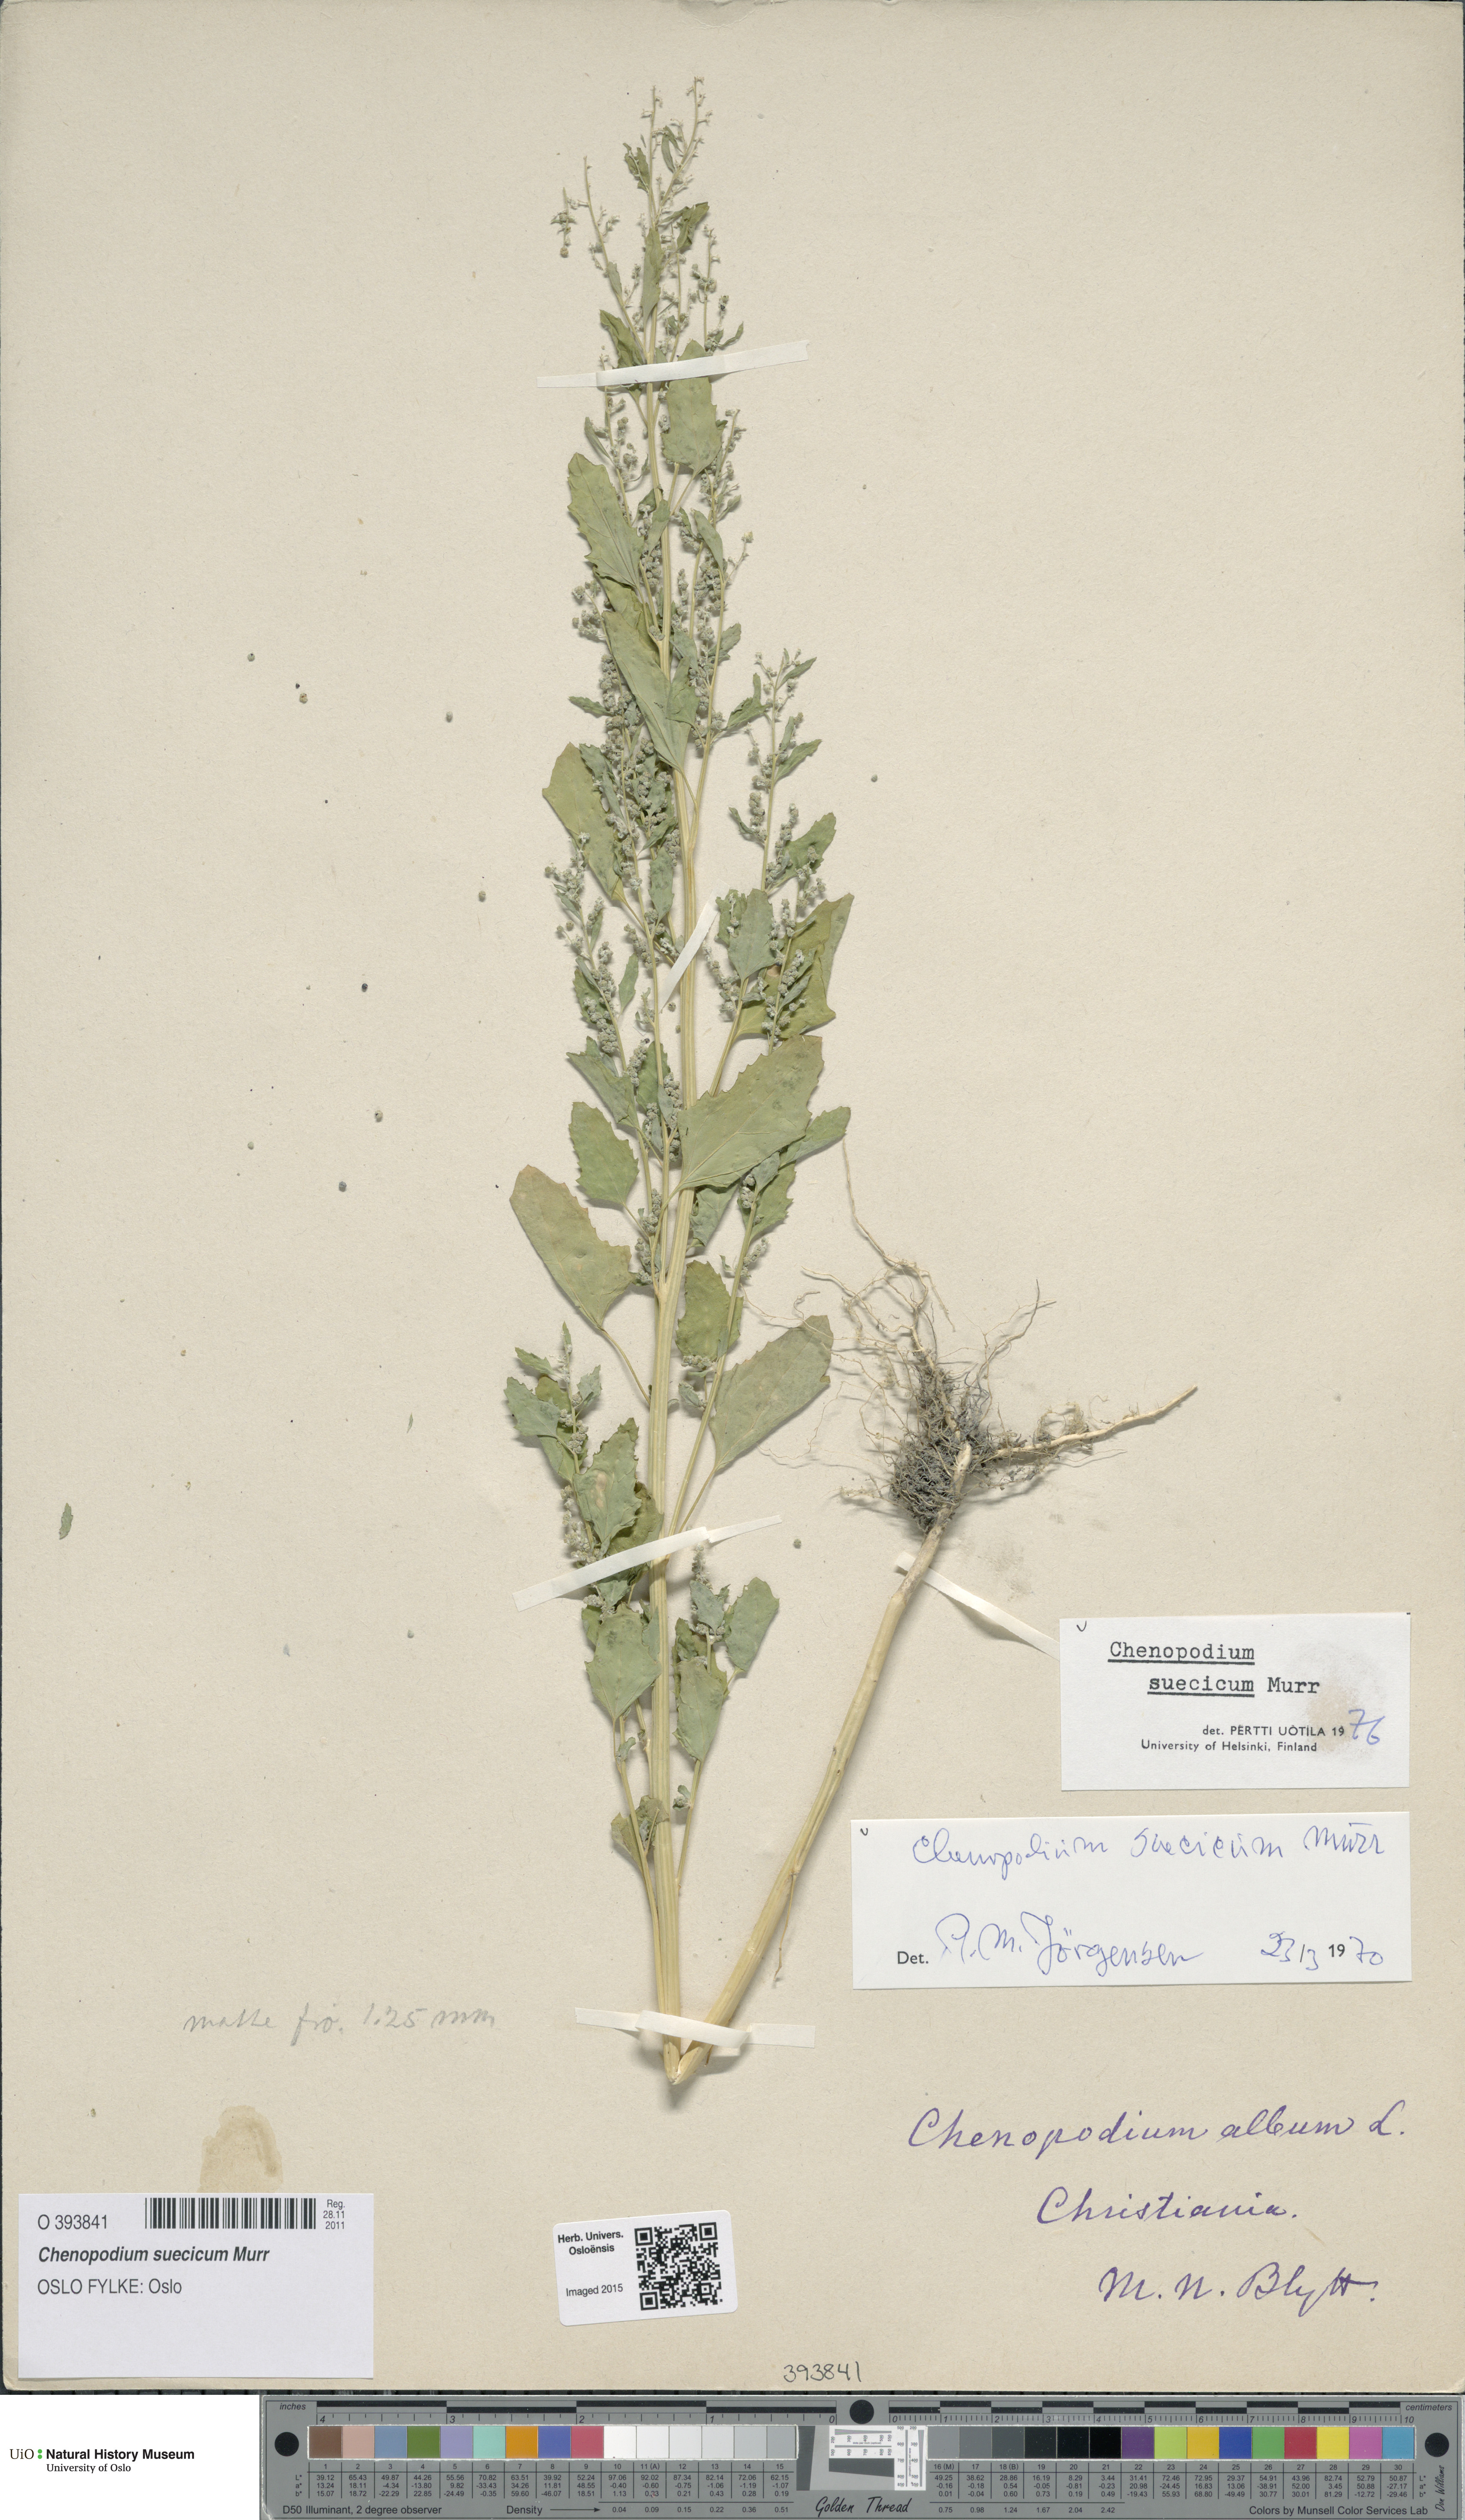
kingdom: Plantae
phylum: Tracheophyta
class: Magnoliopsida
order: Caryophyllales
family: Amaranthaceae
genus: Chenopodium
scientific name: Chenopodium suecicum
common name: Swedish goosefoot
